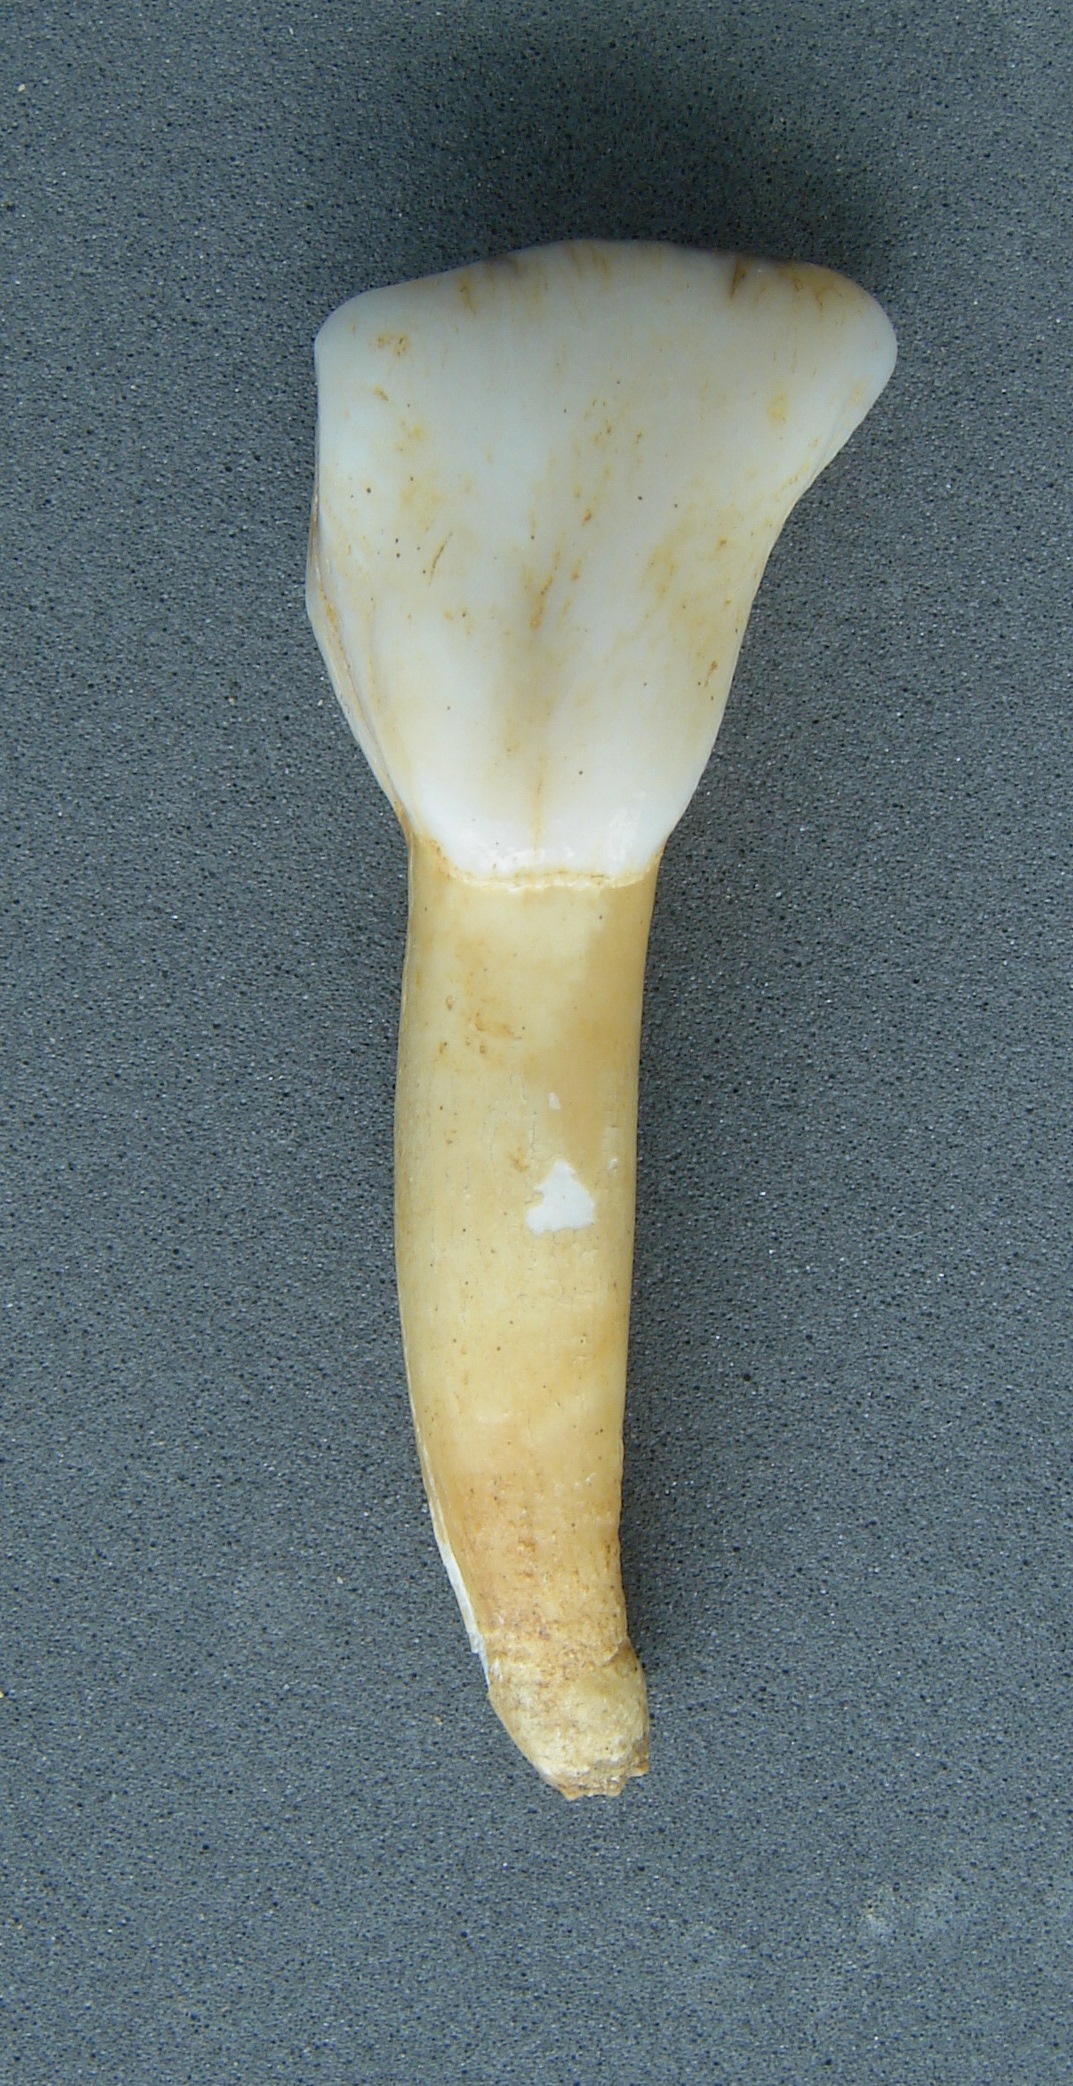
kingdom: Animalia
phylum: Chordata
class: Mammalia
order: Artiodactyla
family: Cervidae
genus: Cervus
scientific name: Cervus elaphus
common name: Red deer
